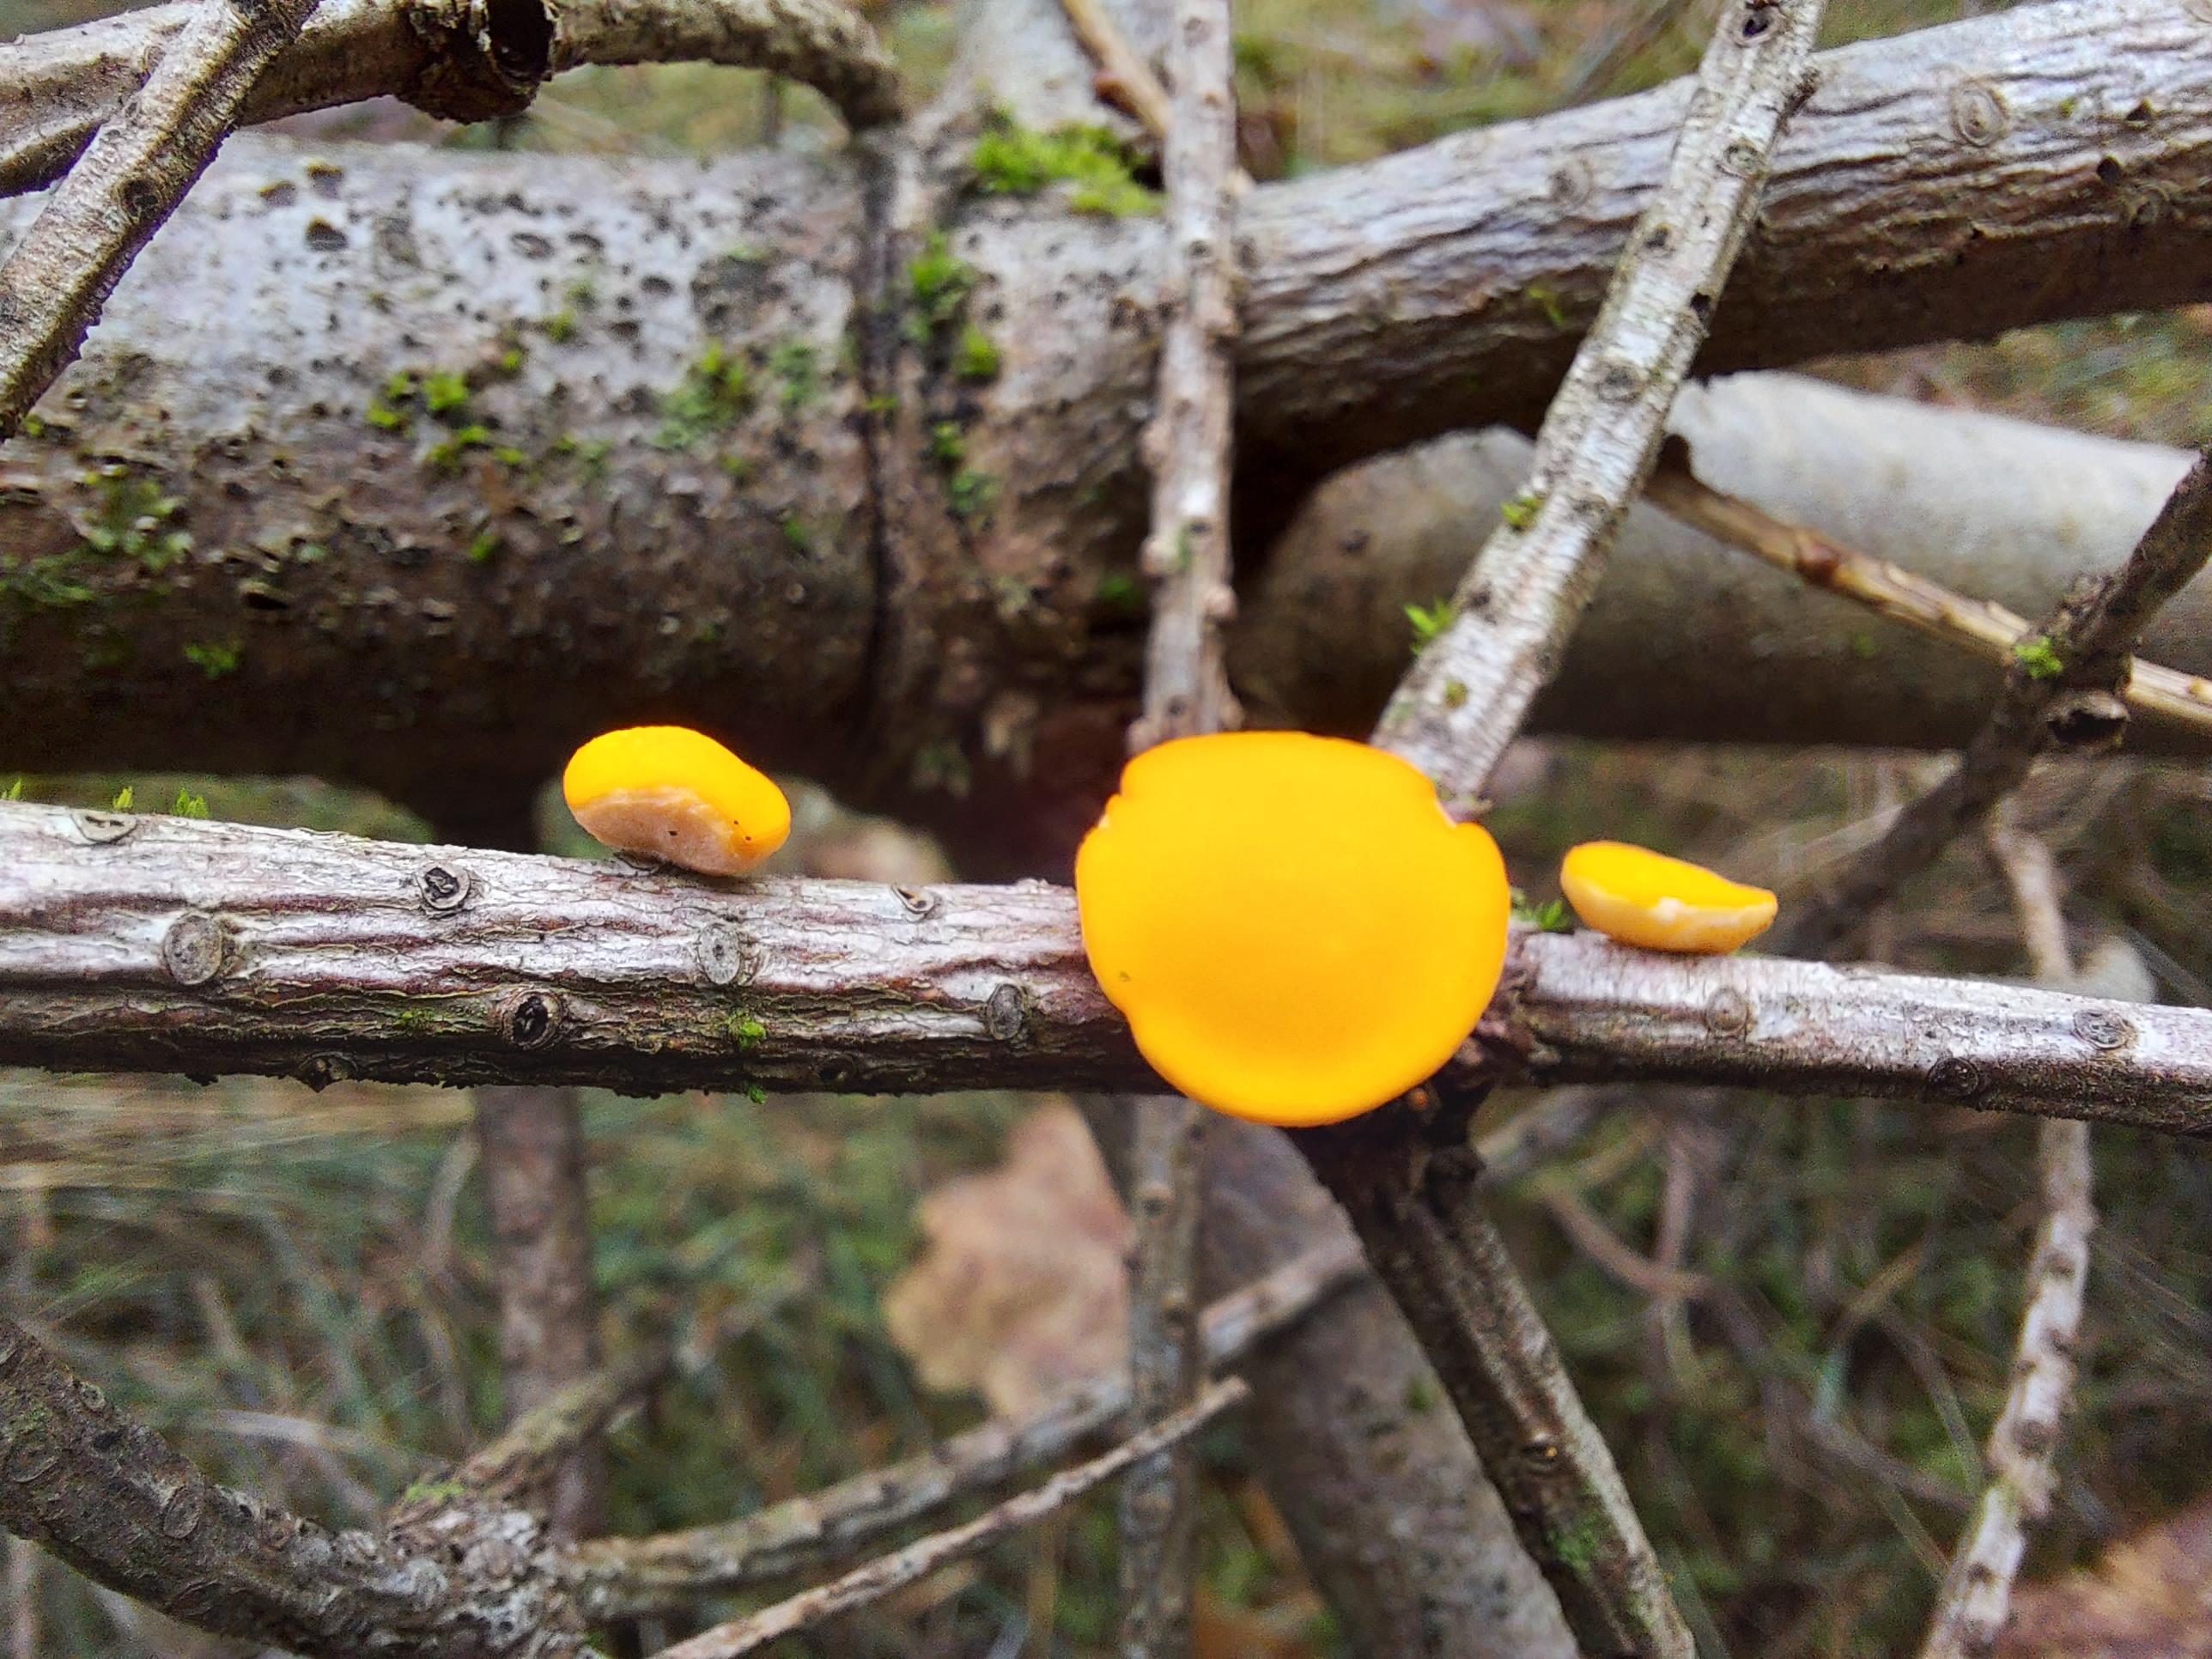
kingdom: Fungi
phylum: Ascomycota
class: Pezizomycetes
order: Pezizales
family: Sarcoscyphaceae
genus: Pithya
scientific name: Pithya vulgaris
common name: stor dukatbæger
